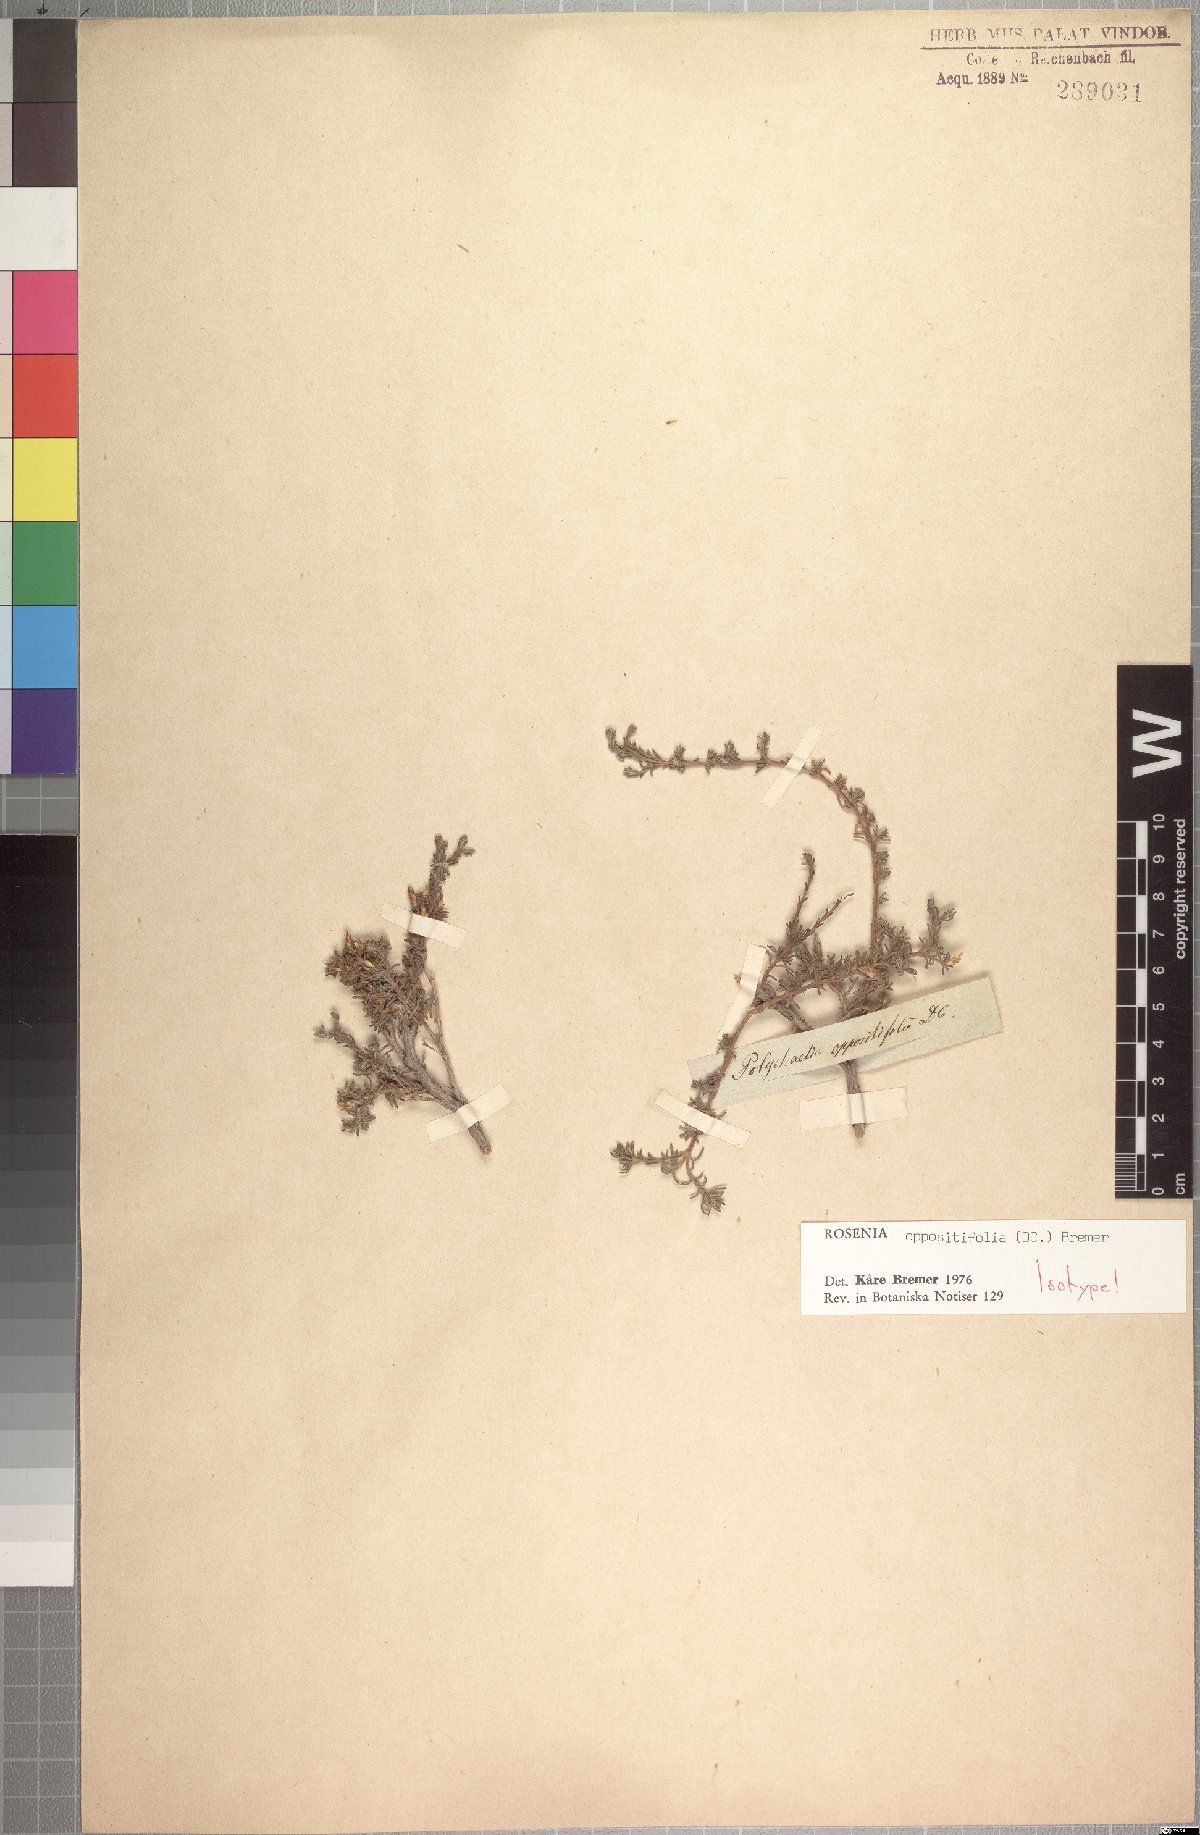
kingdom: Plantae
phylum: Tracheophyta
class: Magnoliopsida
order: Asterales
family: Asteraceae
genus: Oedera
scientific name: Oedera oppositifolia
